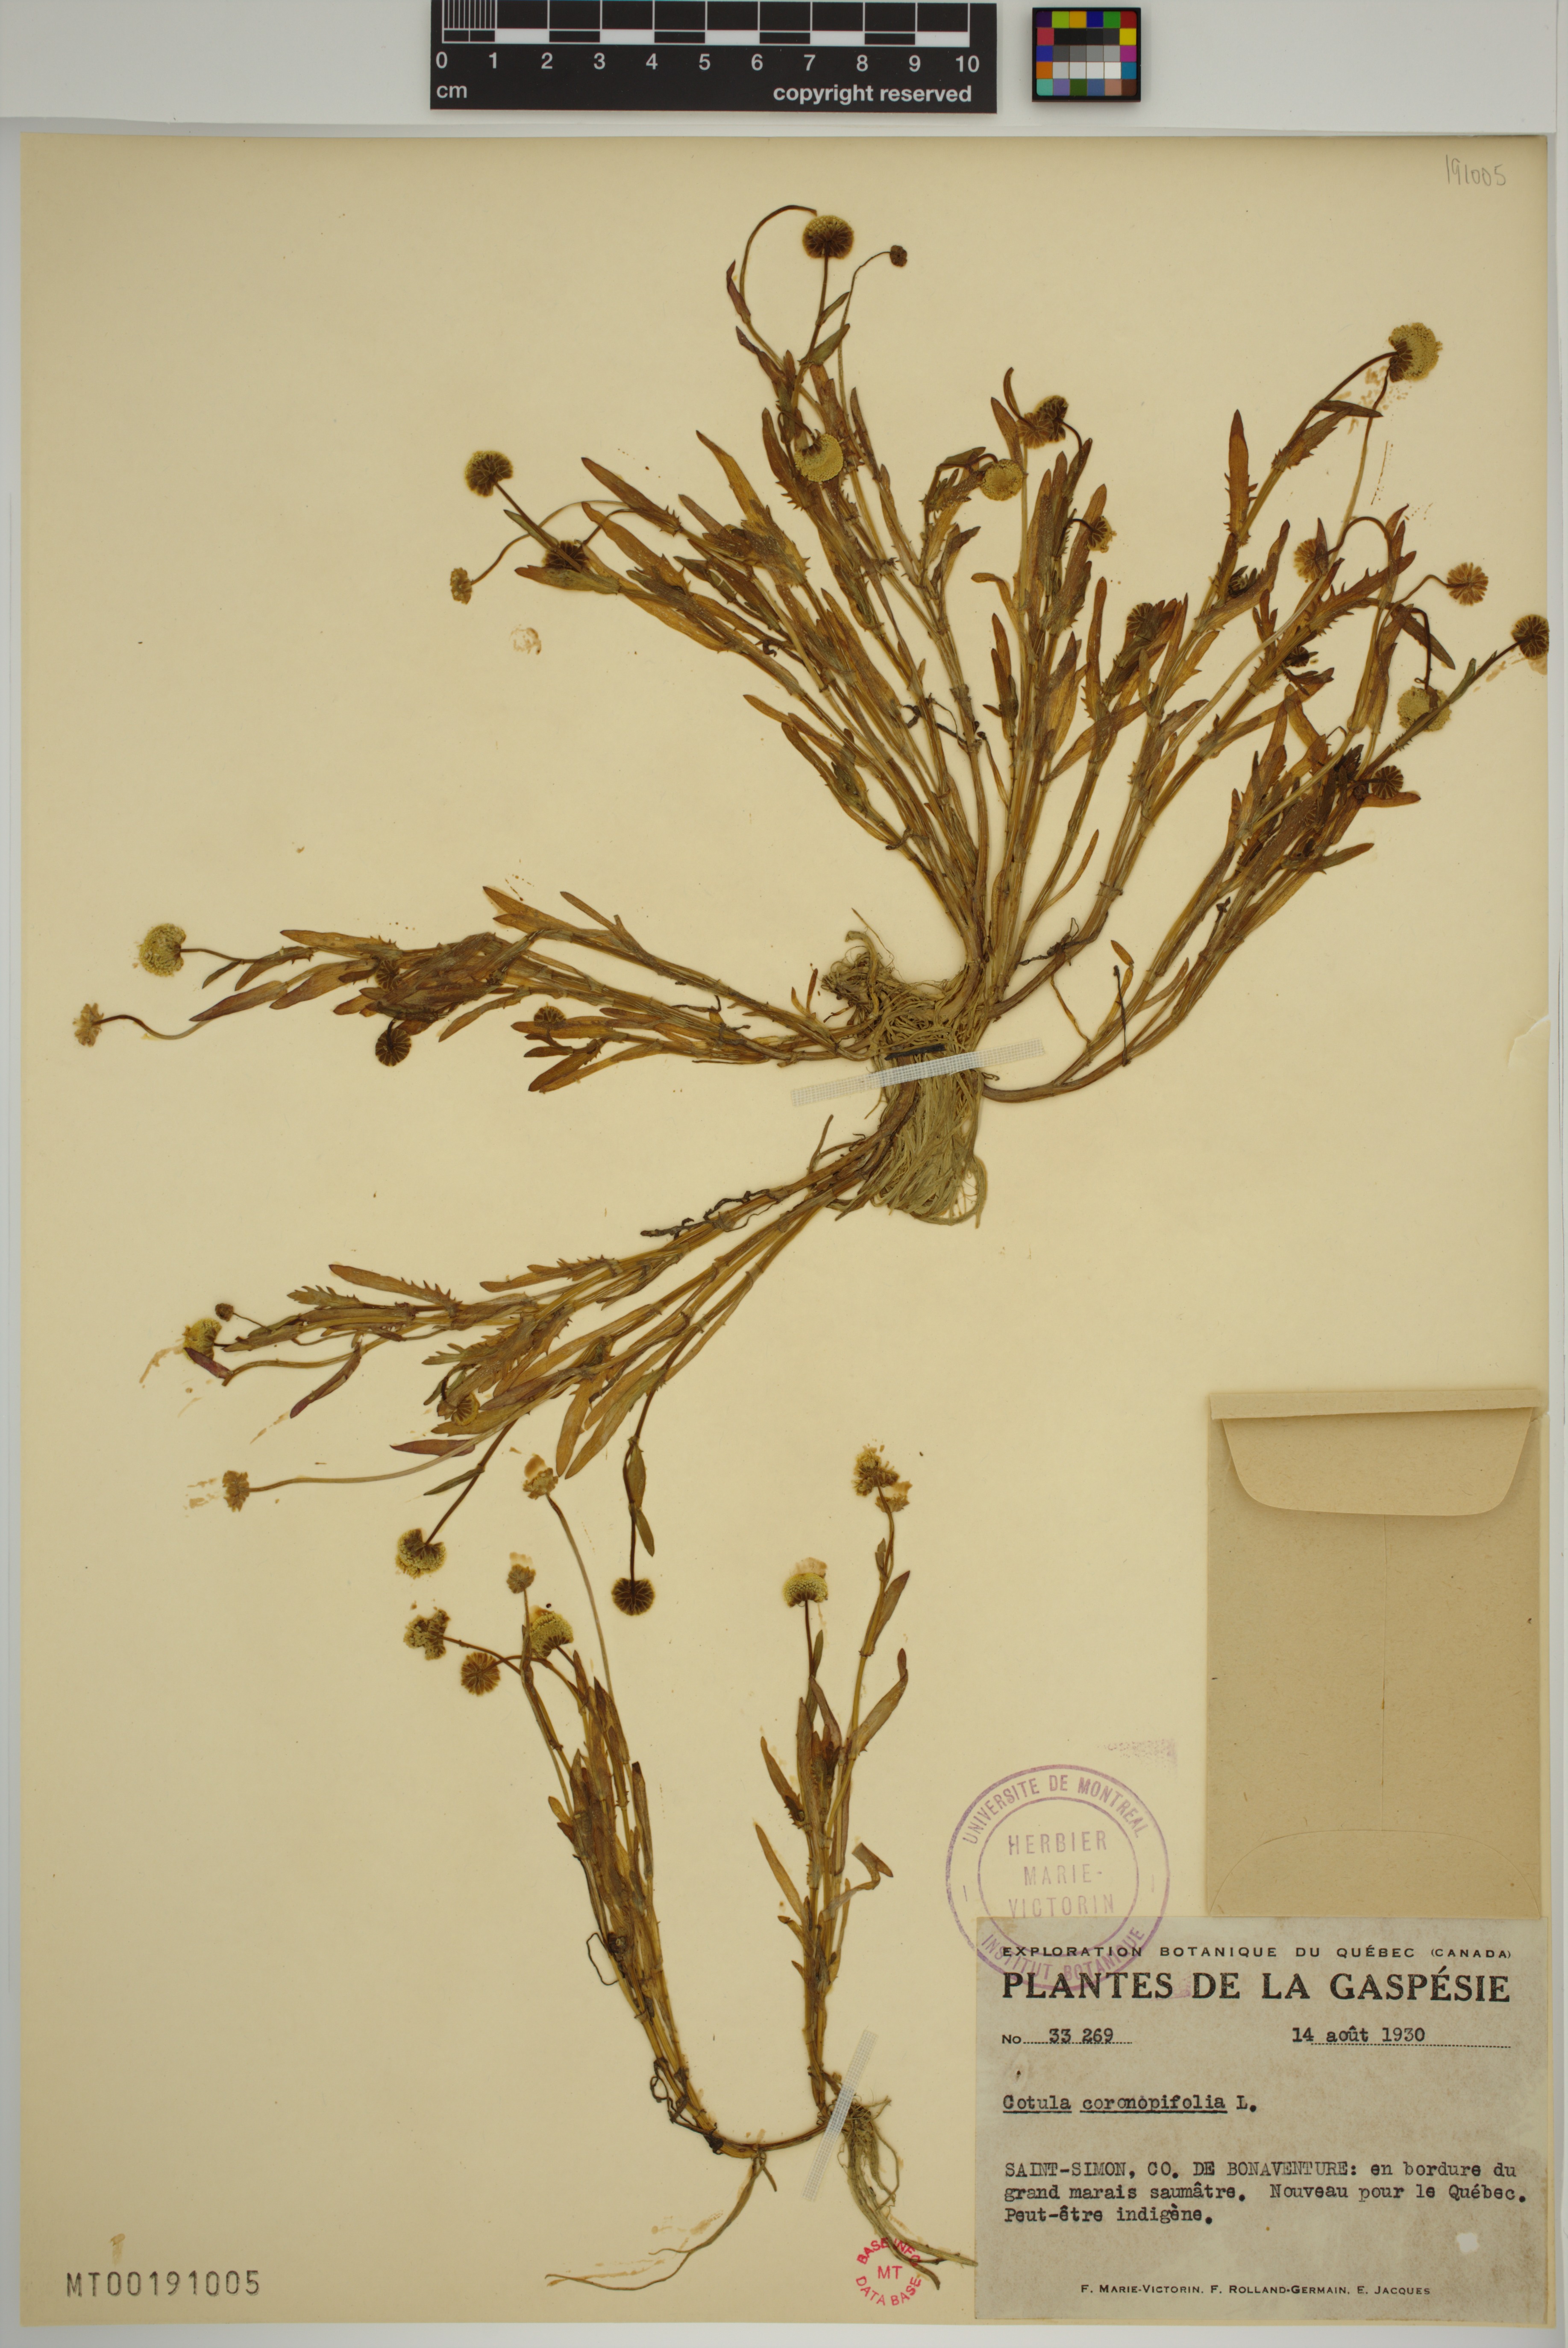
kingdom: Plantae
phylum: Tracheophyta
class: Magnoliopsida
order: Asterales
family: Asteraceae
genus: Cotula
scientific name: Cotula coronopifolia
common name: Buttonweed
